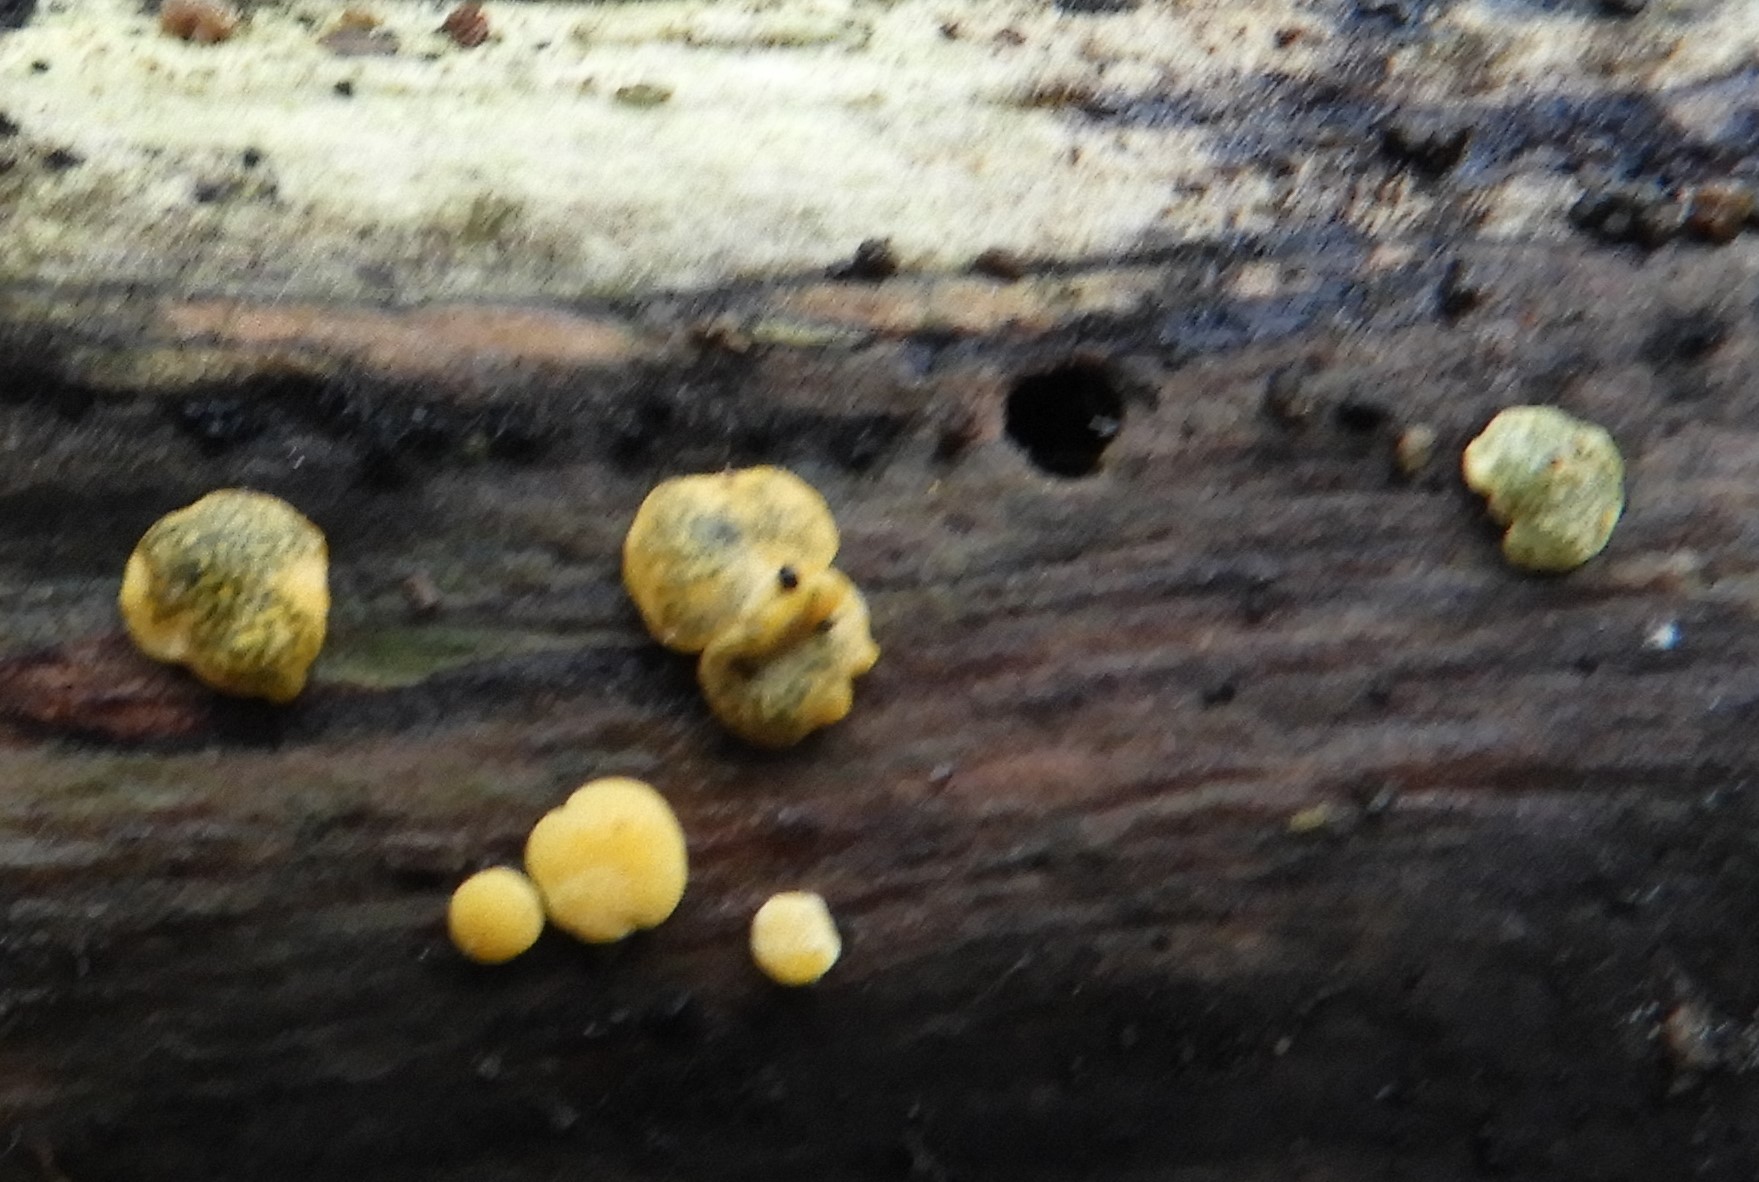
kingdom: Fungi
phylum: Ascomycota
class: Sordariomycetes
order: Hypocreales
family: Hypocreaceae
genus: Trichoderma
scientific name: Trichoderma aureoviride
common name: æggegul kødkerne
